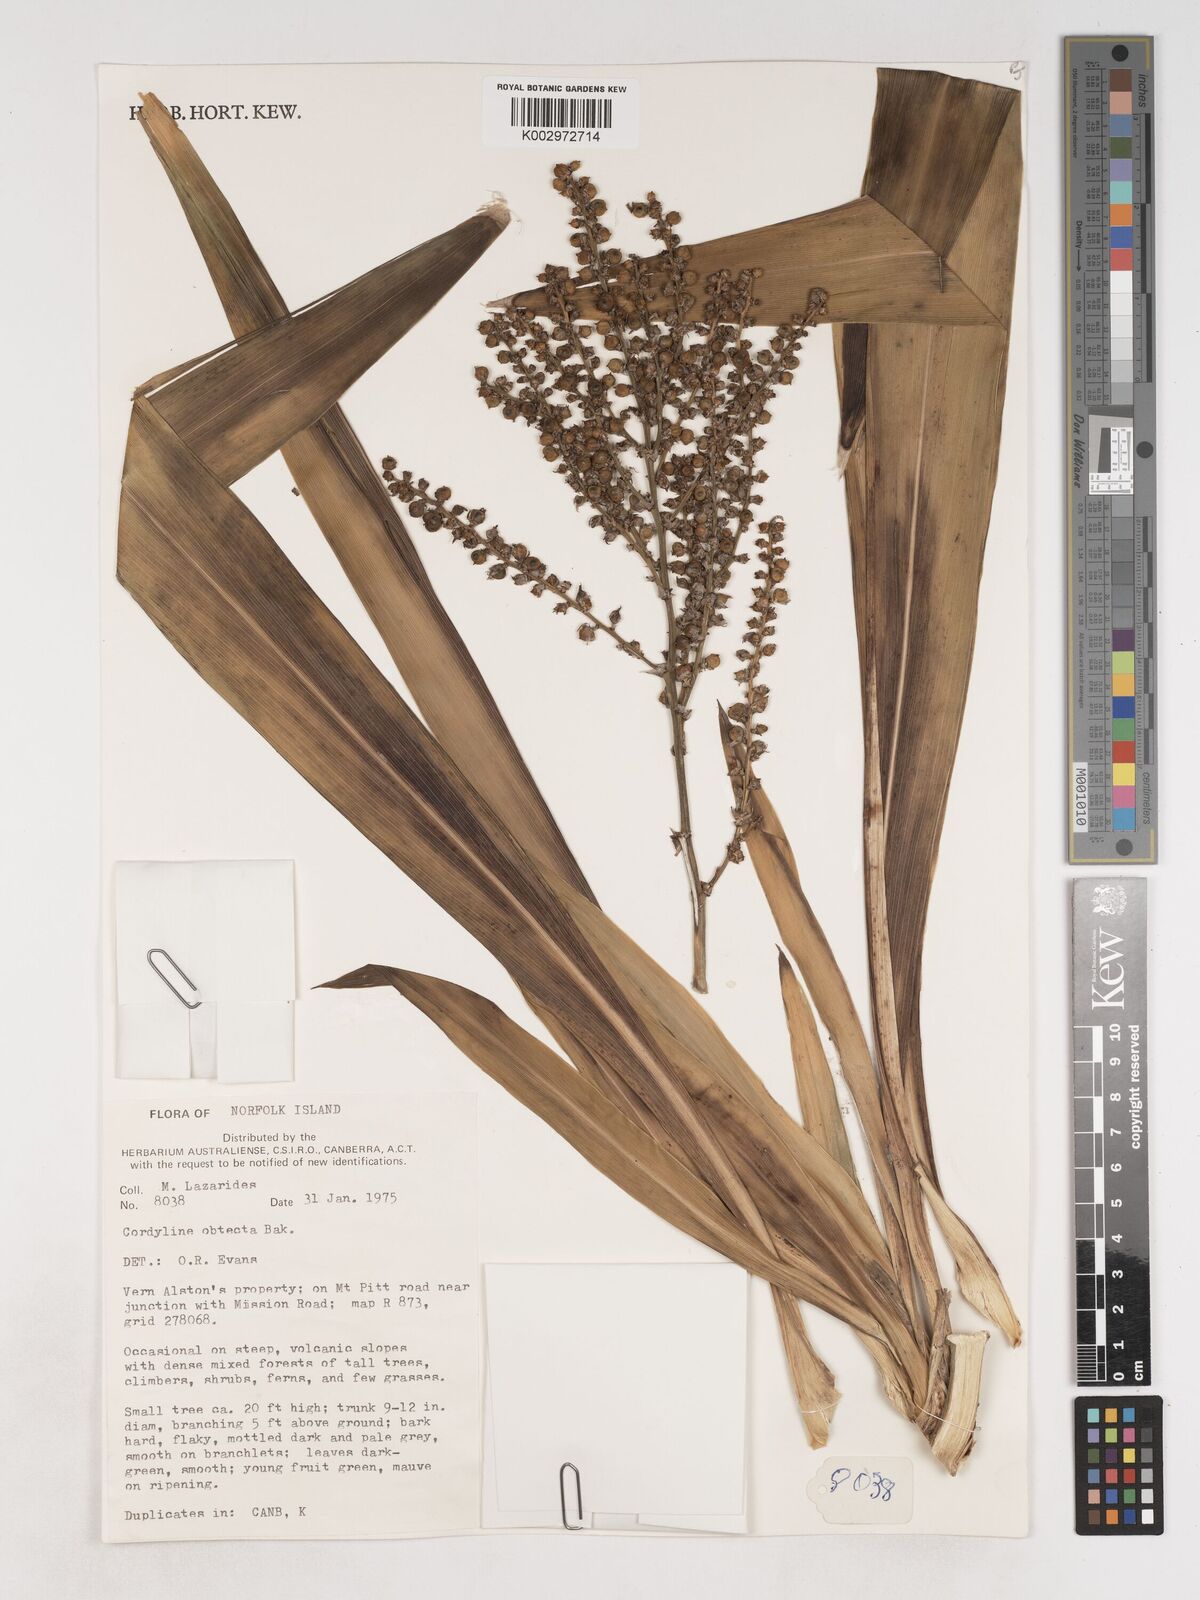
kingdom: Plantae
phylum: Tracheophyta
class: Liliopsida
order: Asparagales
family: Asparagaceae
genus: Cordyline
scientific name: Cordyline obtecta
